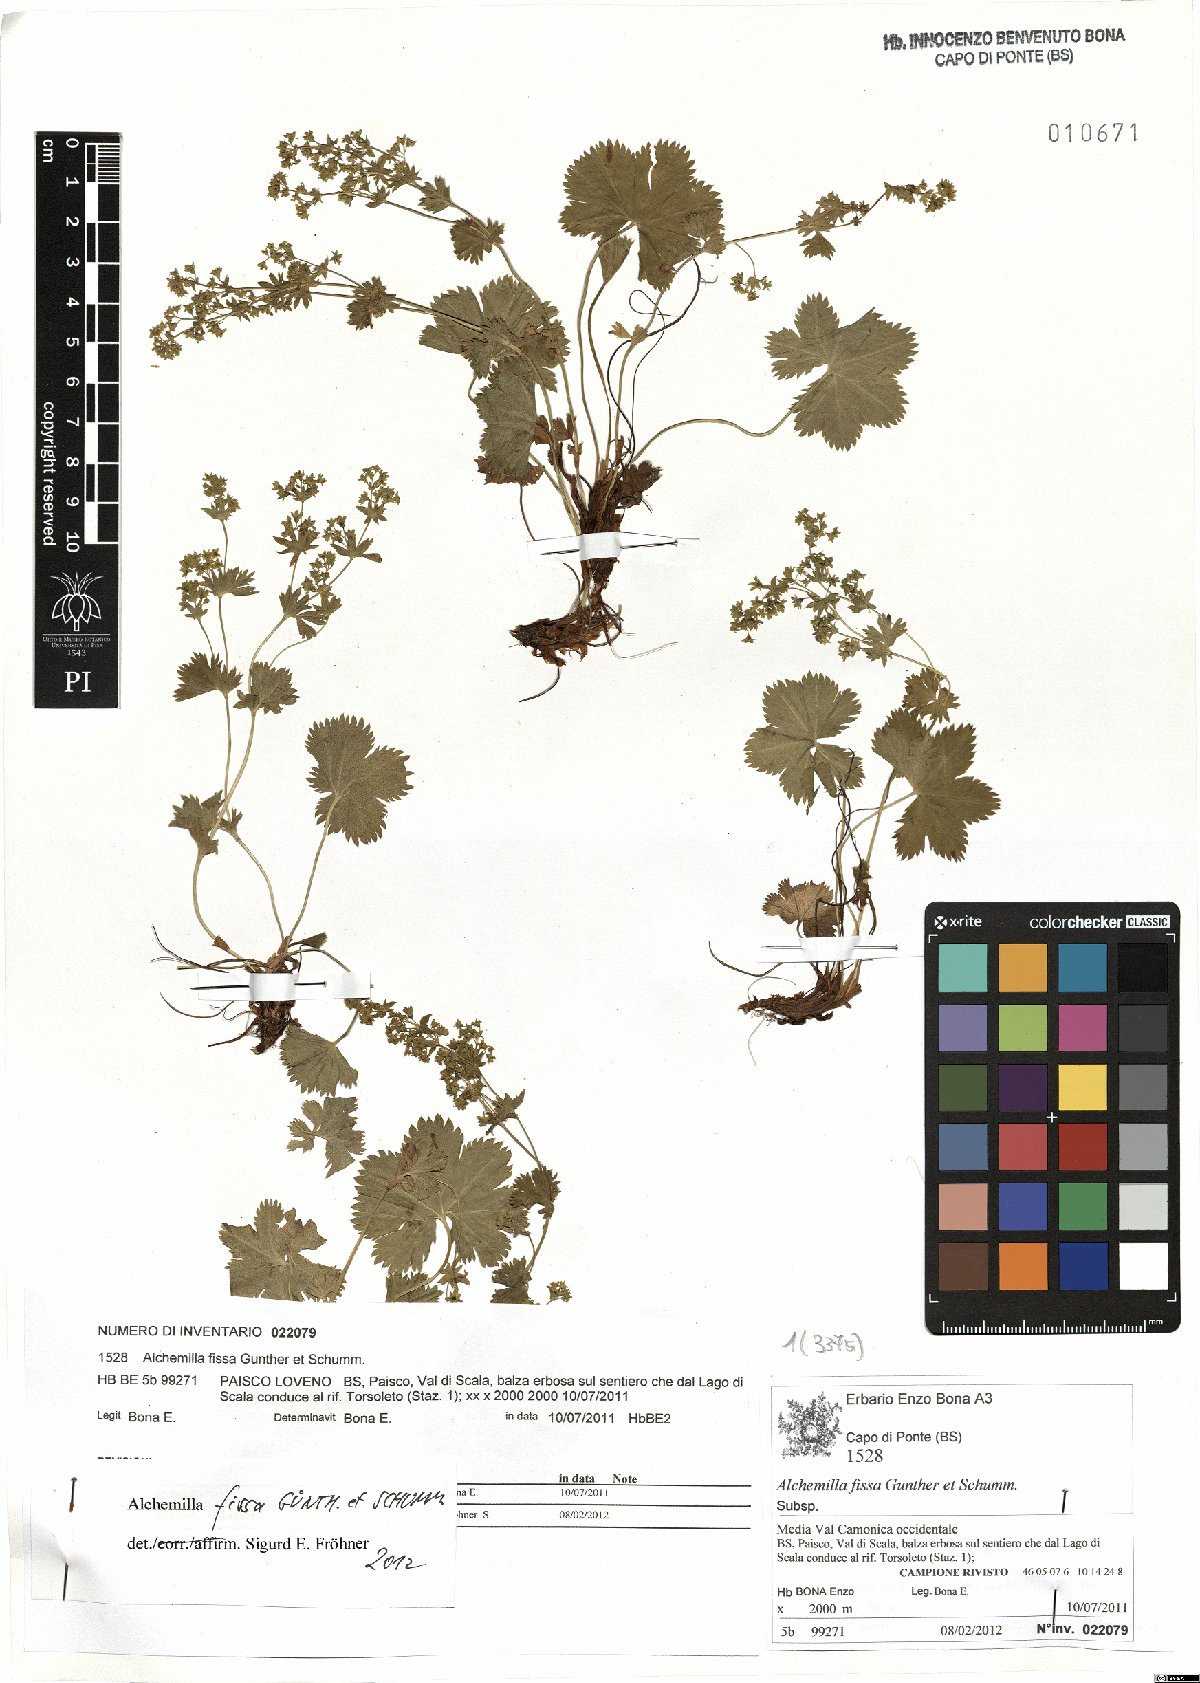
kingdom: Plantae
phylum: Tracheophyta
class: Magnoliopsida
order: Rosales
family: Rosaceae
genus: Alchemilla
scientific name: Alchemilla fissa
